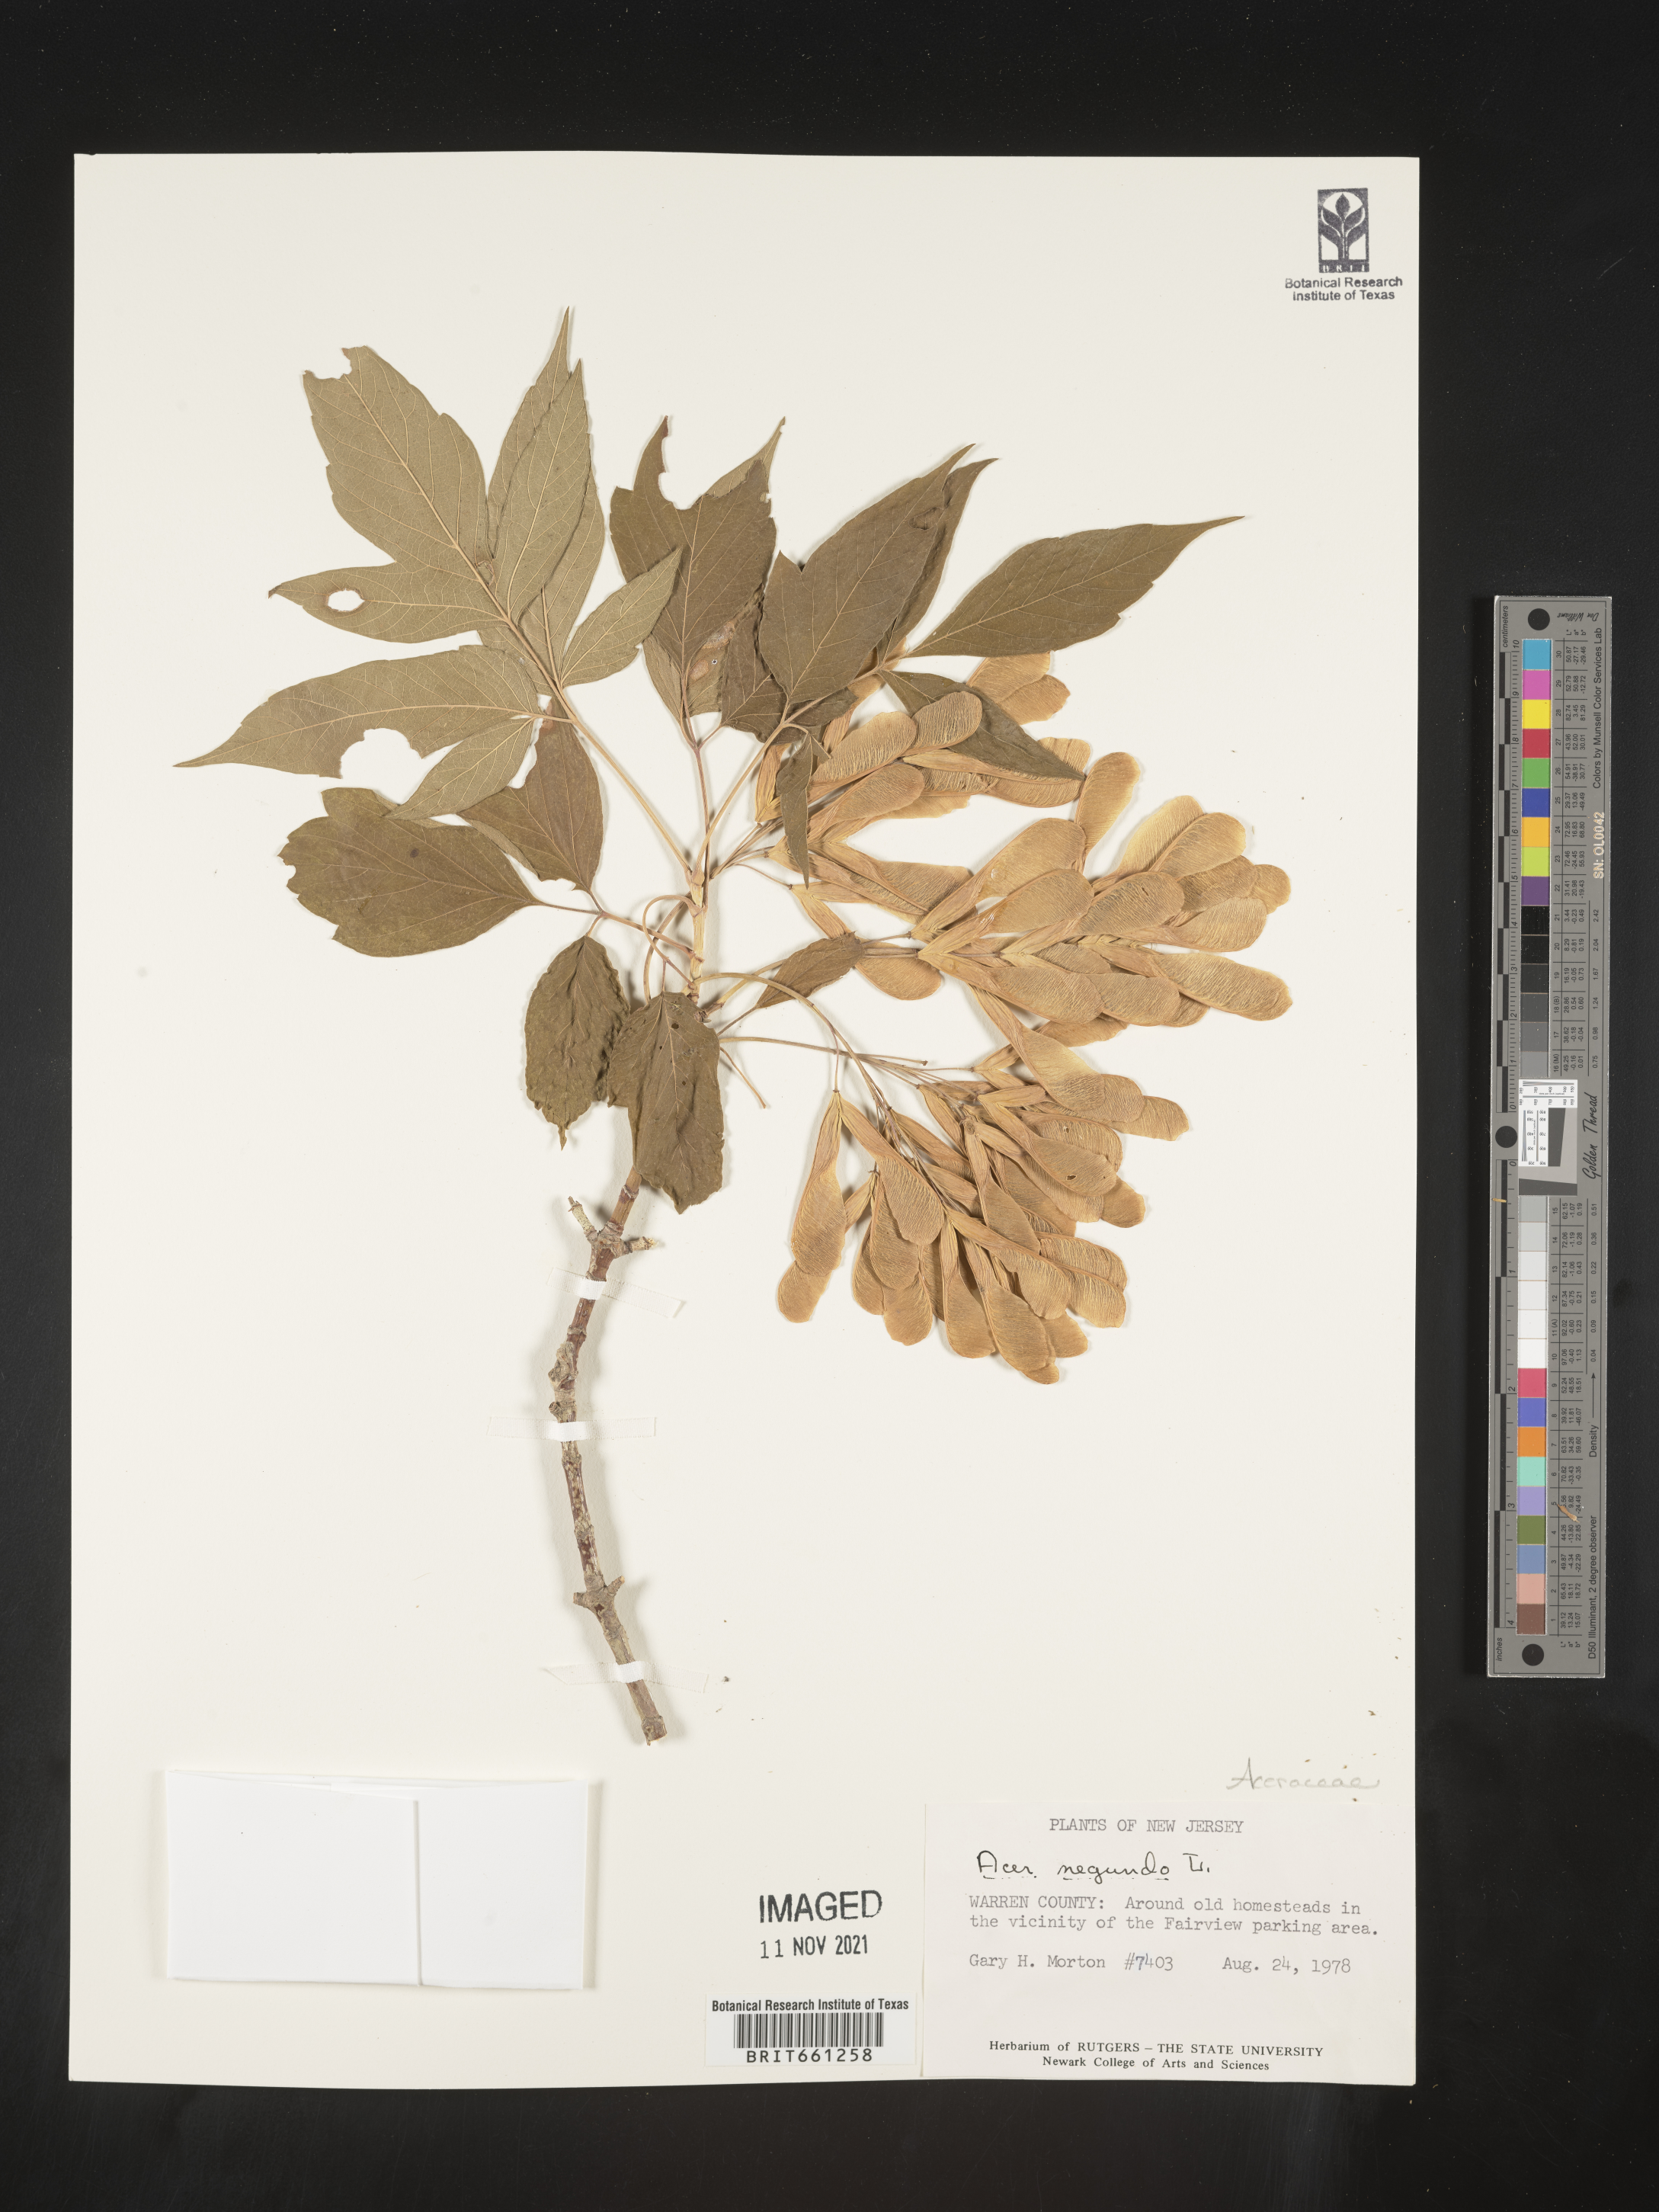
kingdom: Plantae
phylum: Tracheophyta
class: Magnoliopsida
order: Sapindales
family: Sapindaceae
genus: Acer
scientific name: Acer negundo
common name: Ashleaf maple
